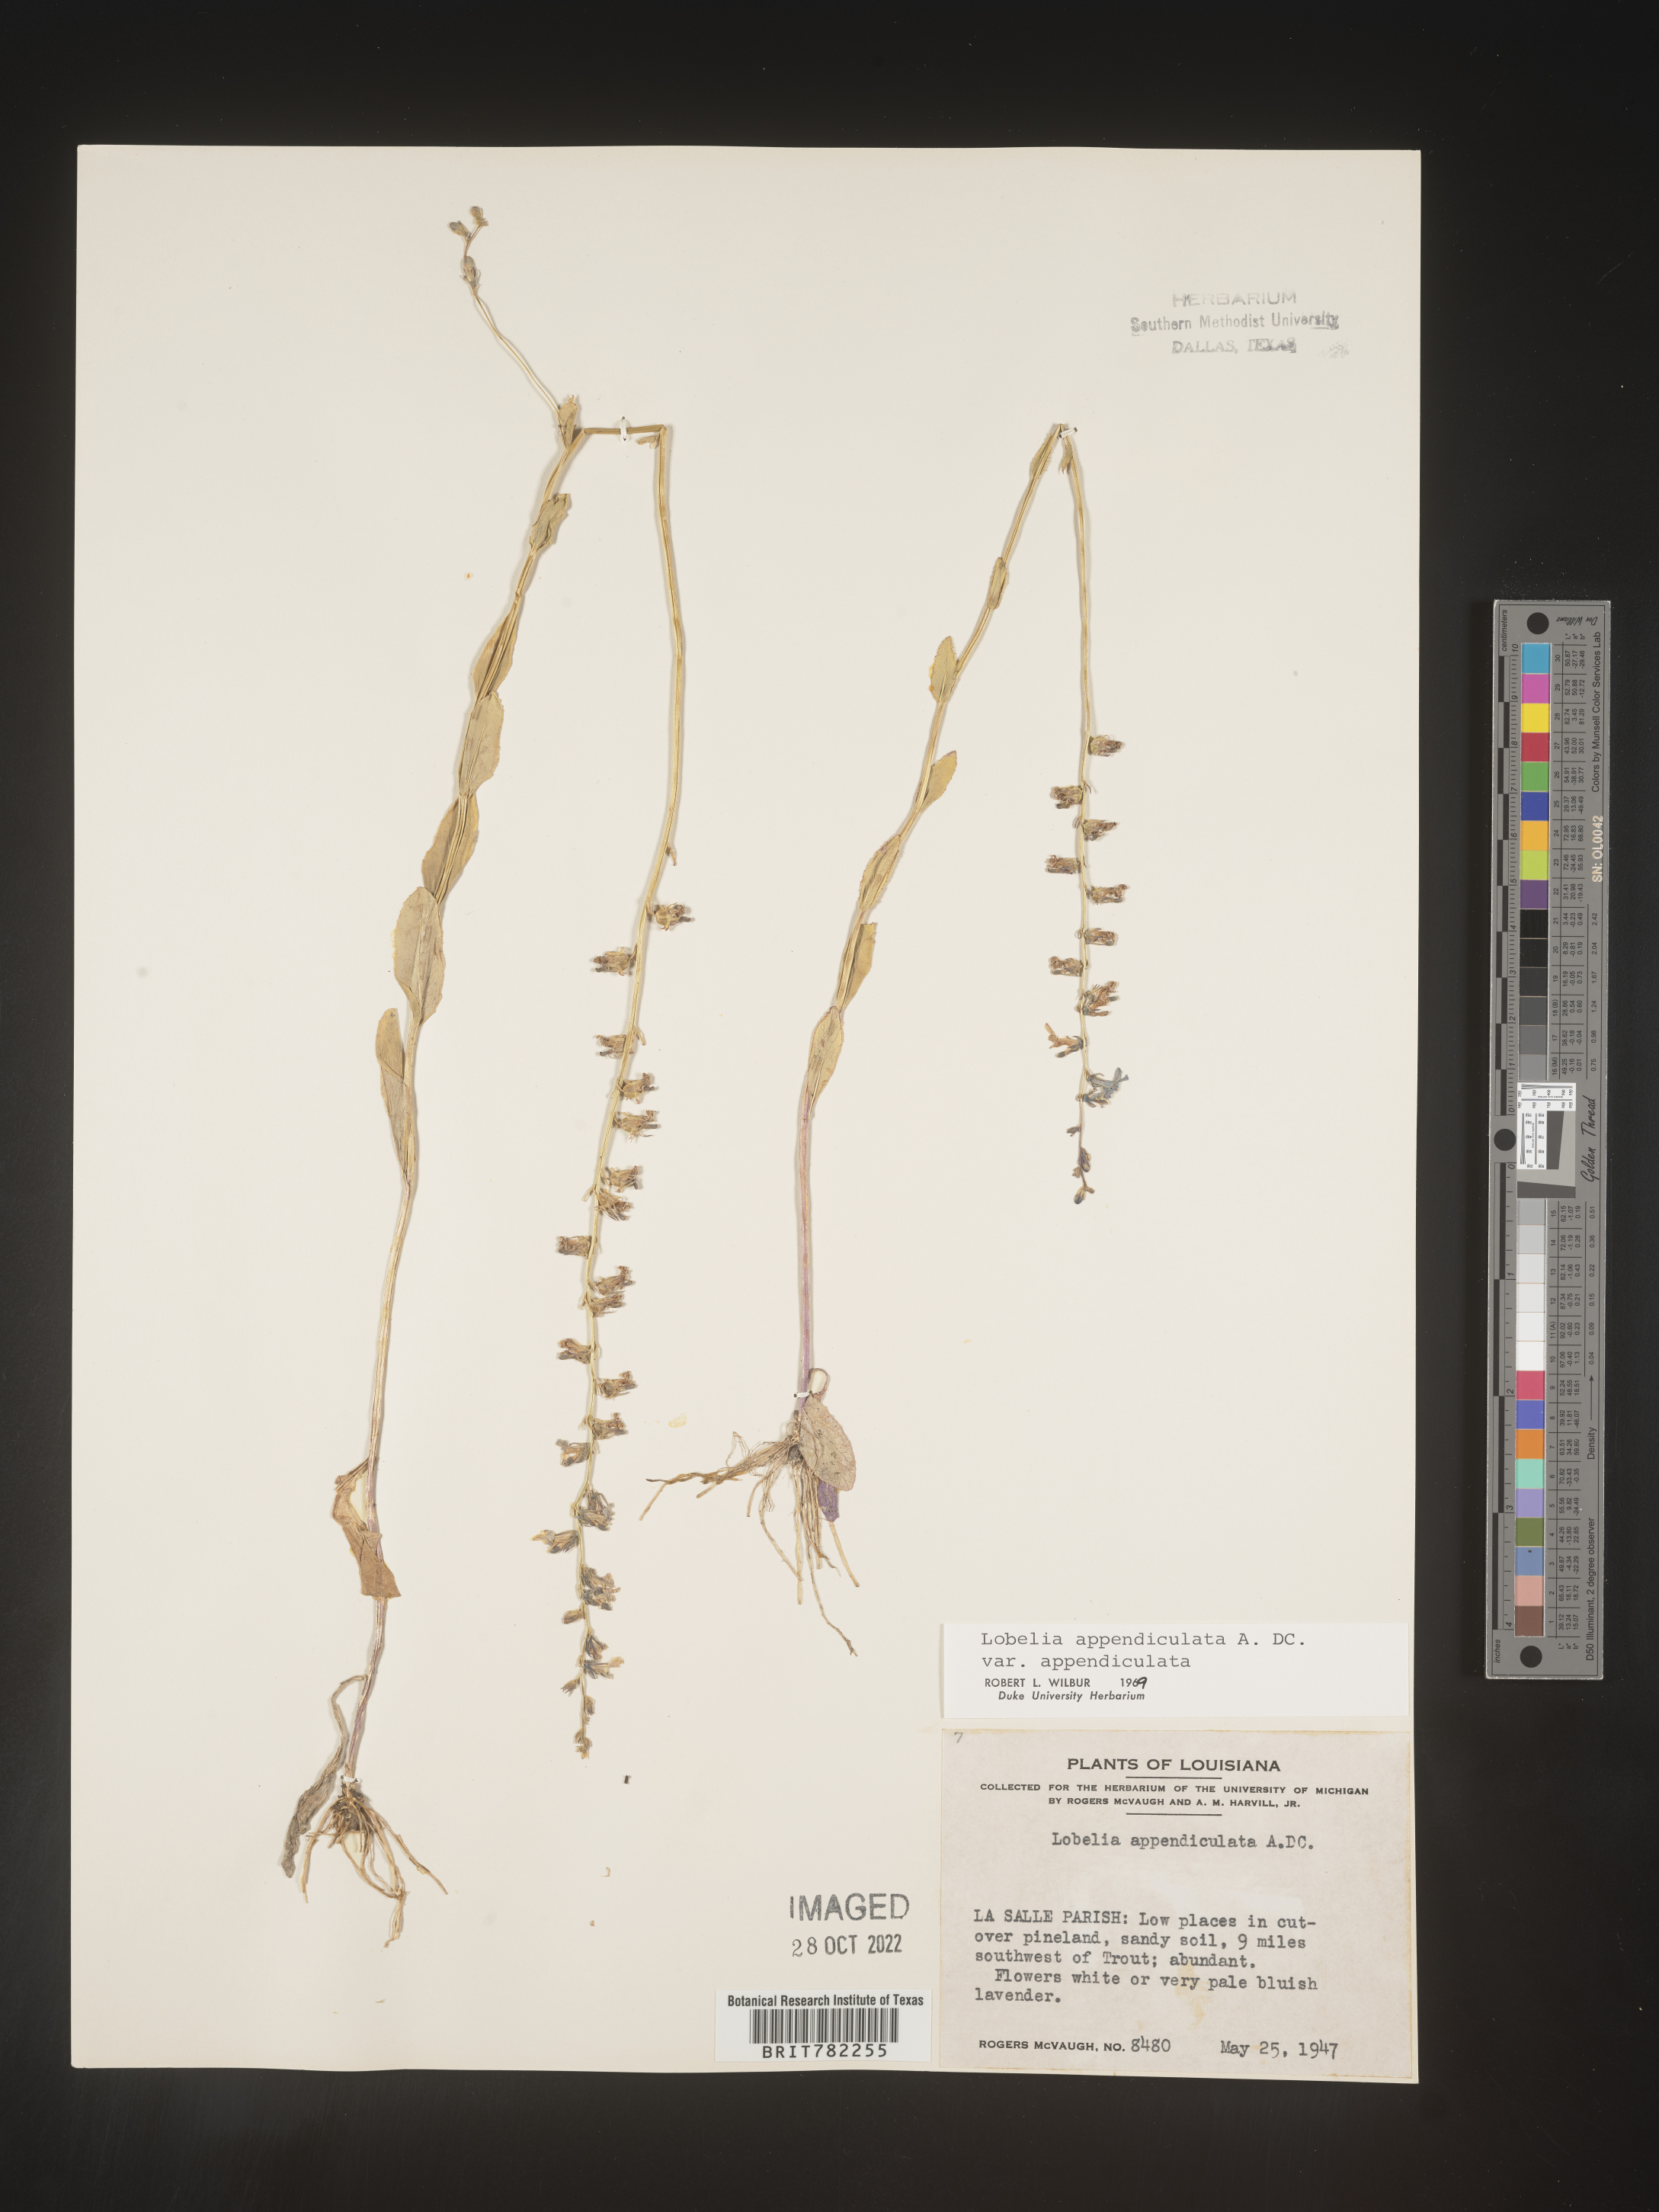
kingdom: Plantae
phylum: Tracheophyta
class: Magnoliopsida
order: Asterales
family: Campanulaceae
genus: Lobelia
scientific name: Lobelia appendiculata
